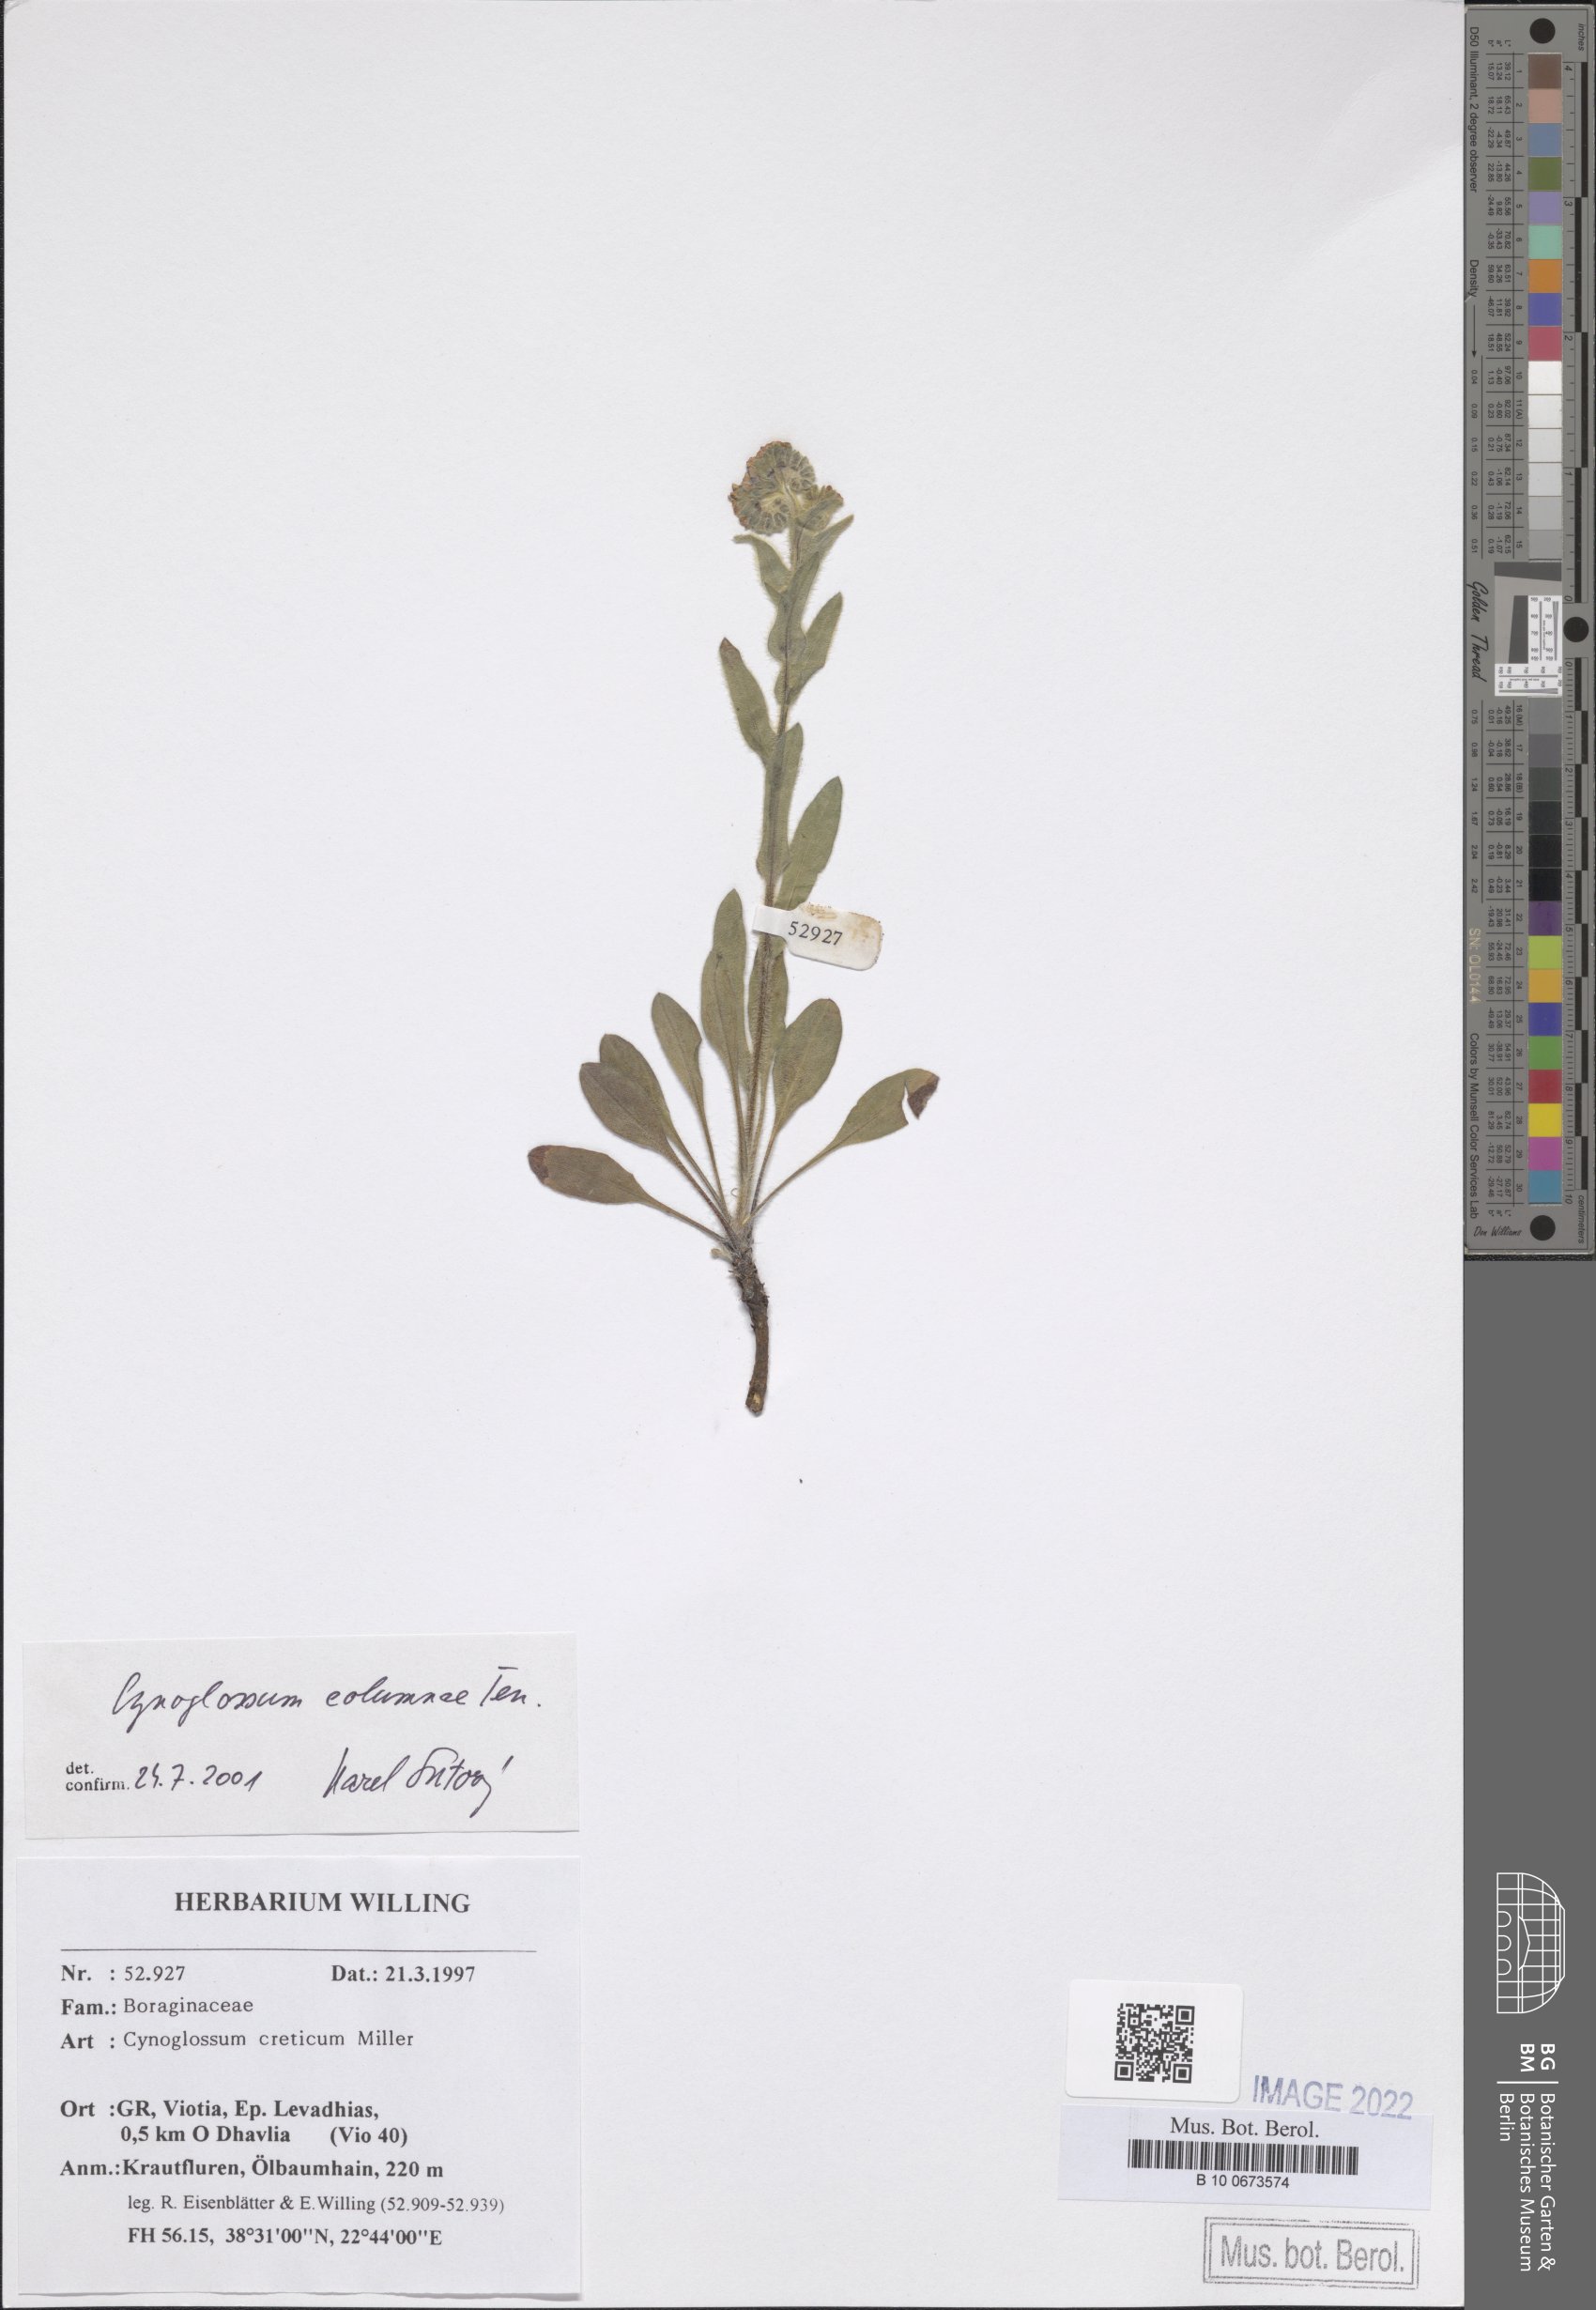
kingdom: Plantae
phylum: Tracheophyta
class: Magnoliopsida
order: Boraginales
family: Boraginaceae
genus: Rindera
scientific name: Rindera columnae
